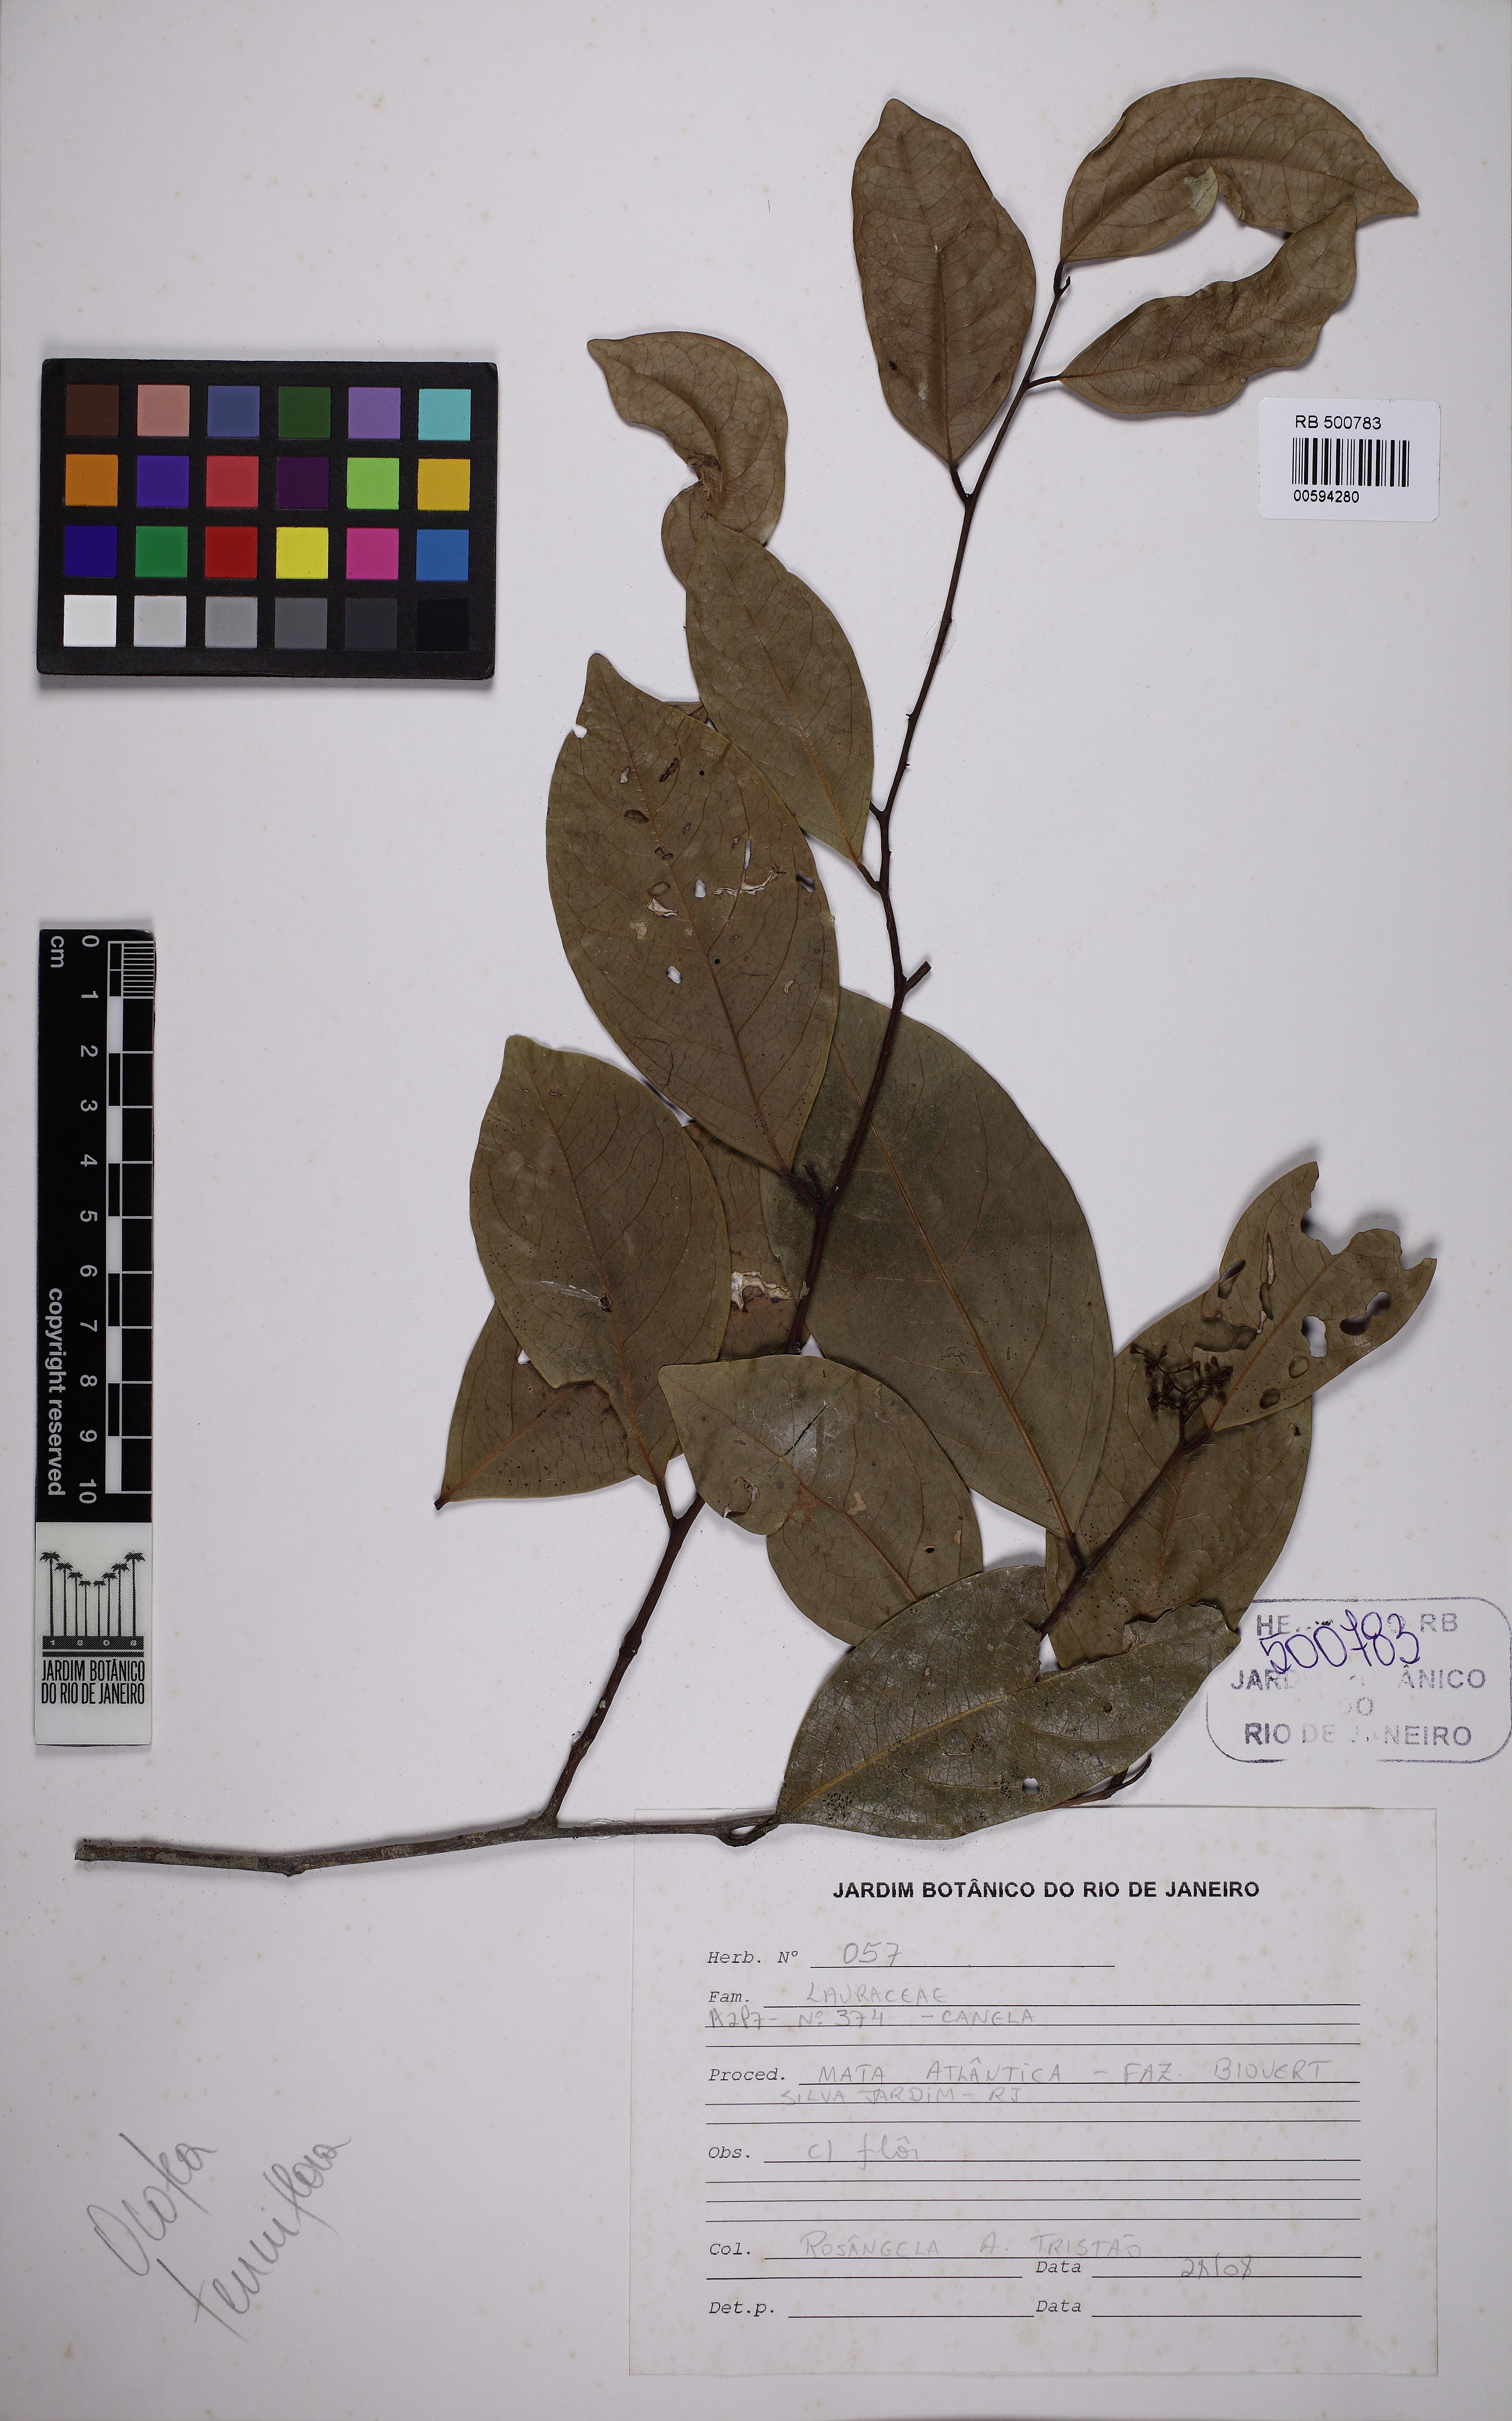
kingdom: Plantae
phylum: Tracheophyta
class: Magnoliopsida
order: Laurales
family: Lauraceae
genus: Ocotea
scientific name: Ocotea tenuiflora
